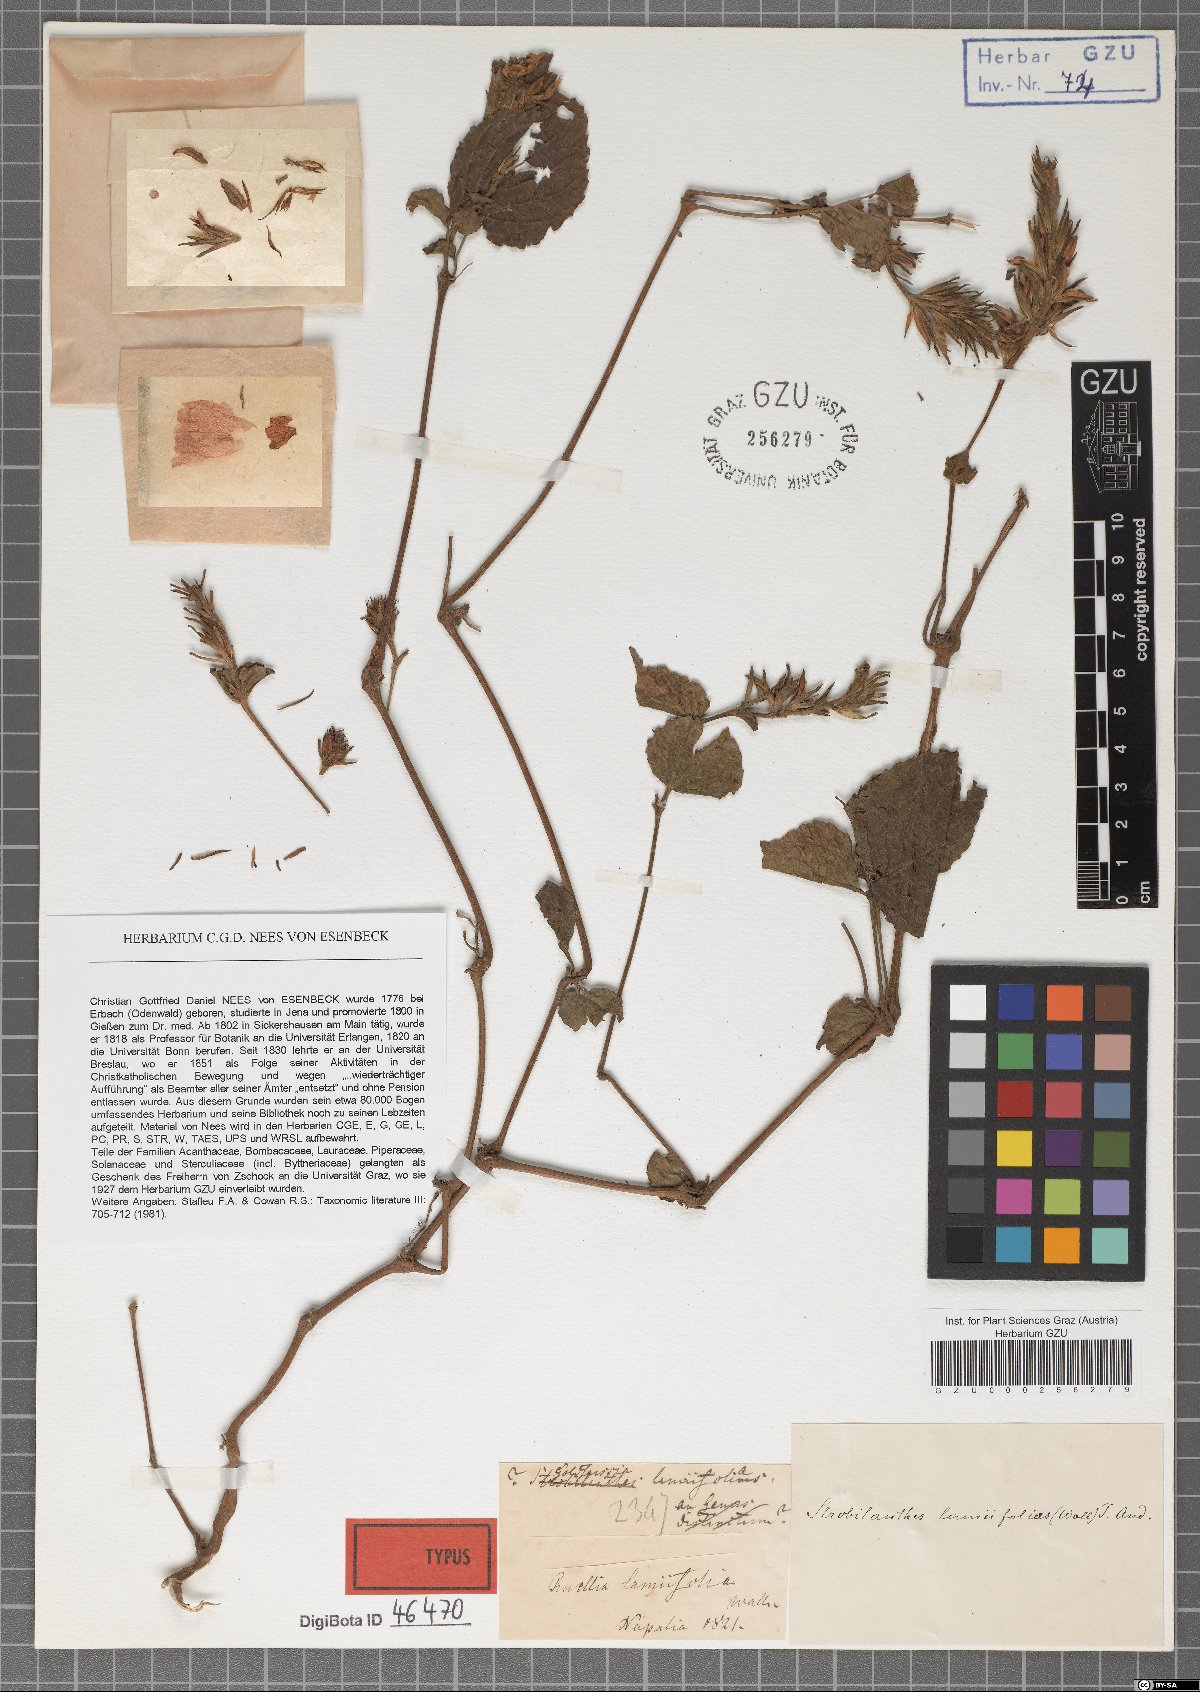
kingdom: Plantae
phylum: Tracheophyta
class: Magnoliopsida
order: Lamiales
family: Acanthaceae
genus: Strobilanthes
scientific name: Strobilanthes lamiifolia
